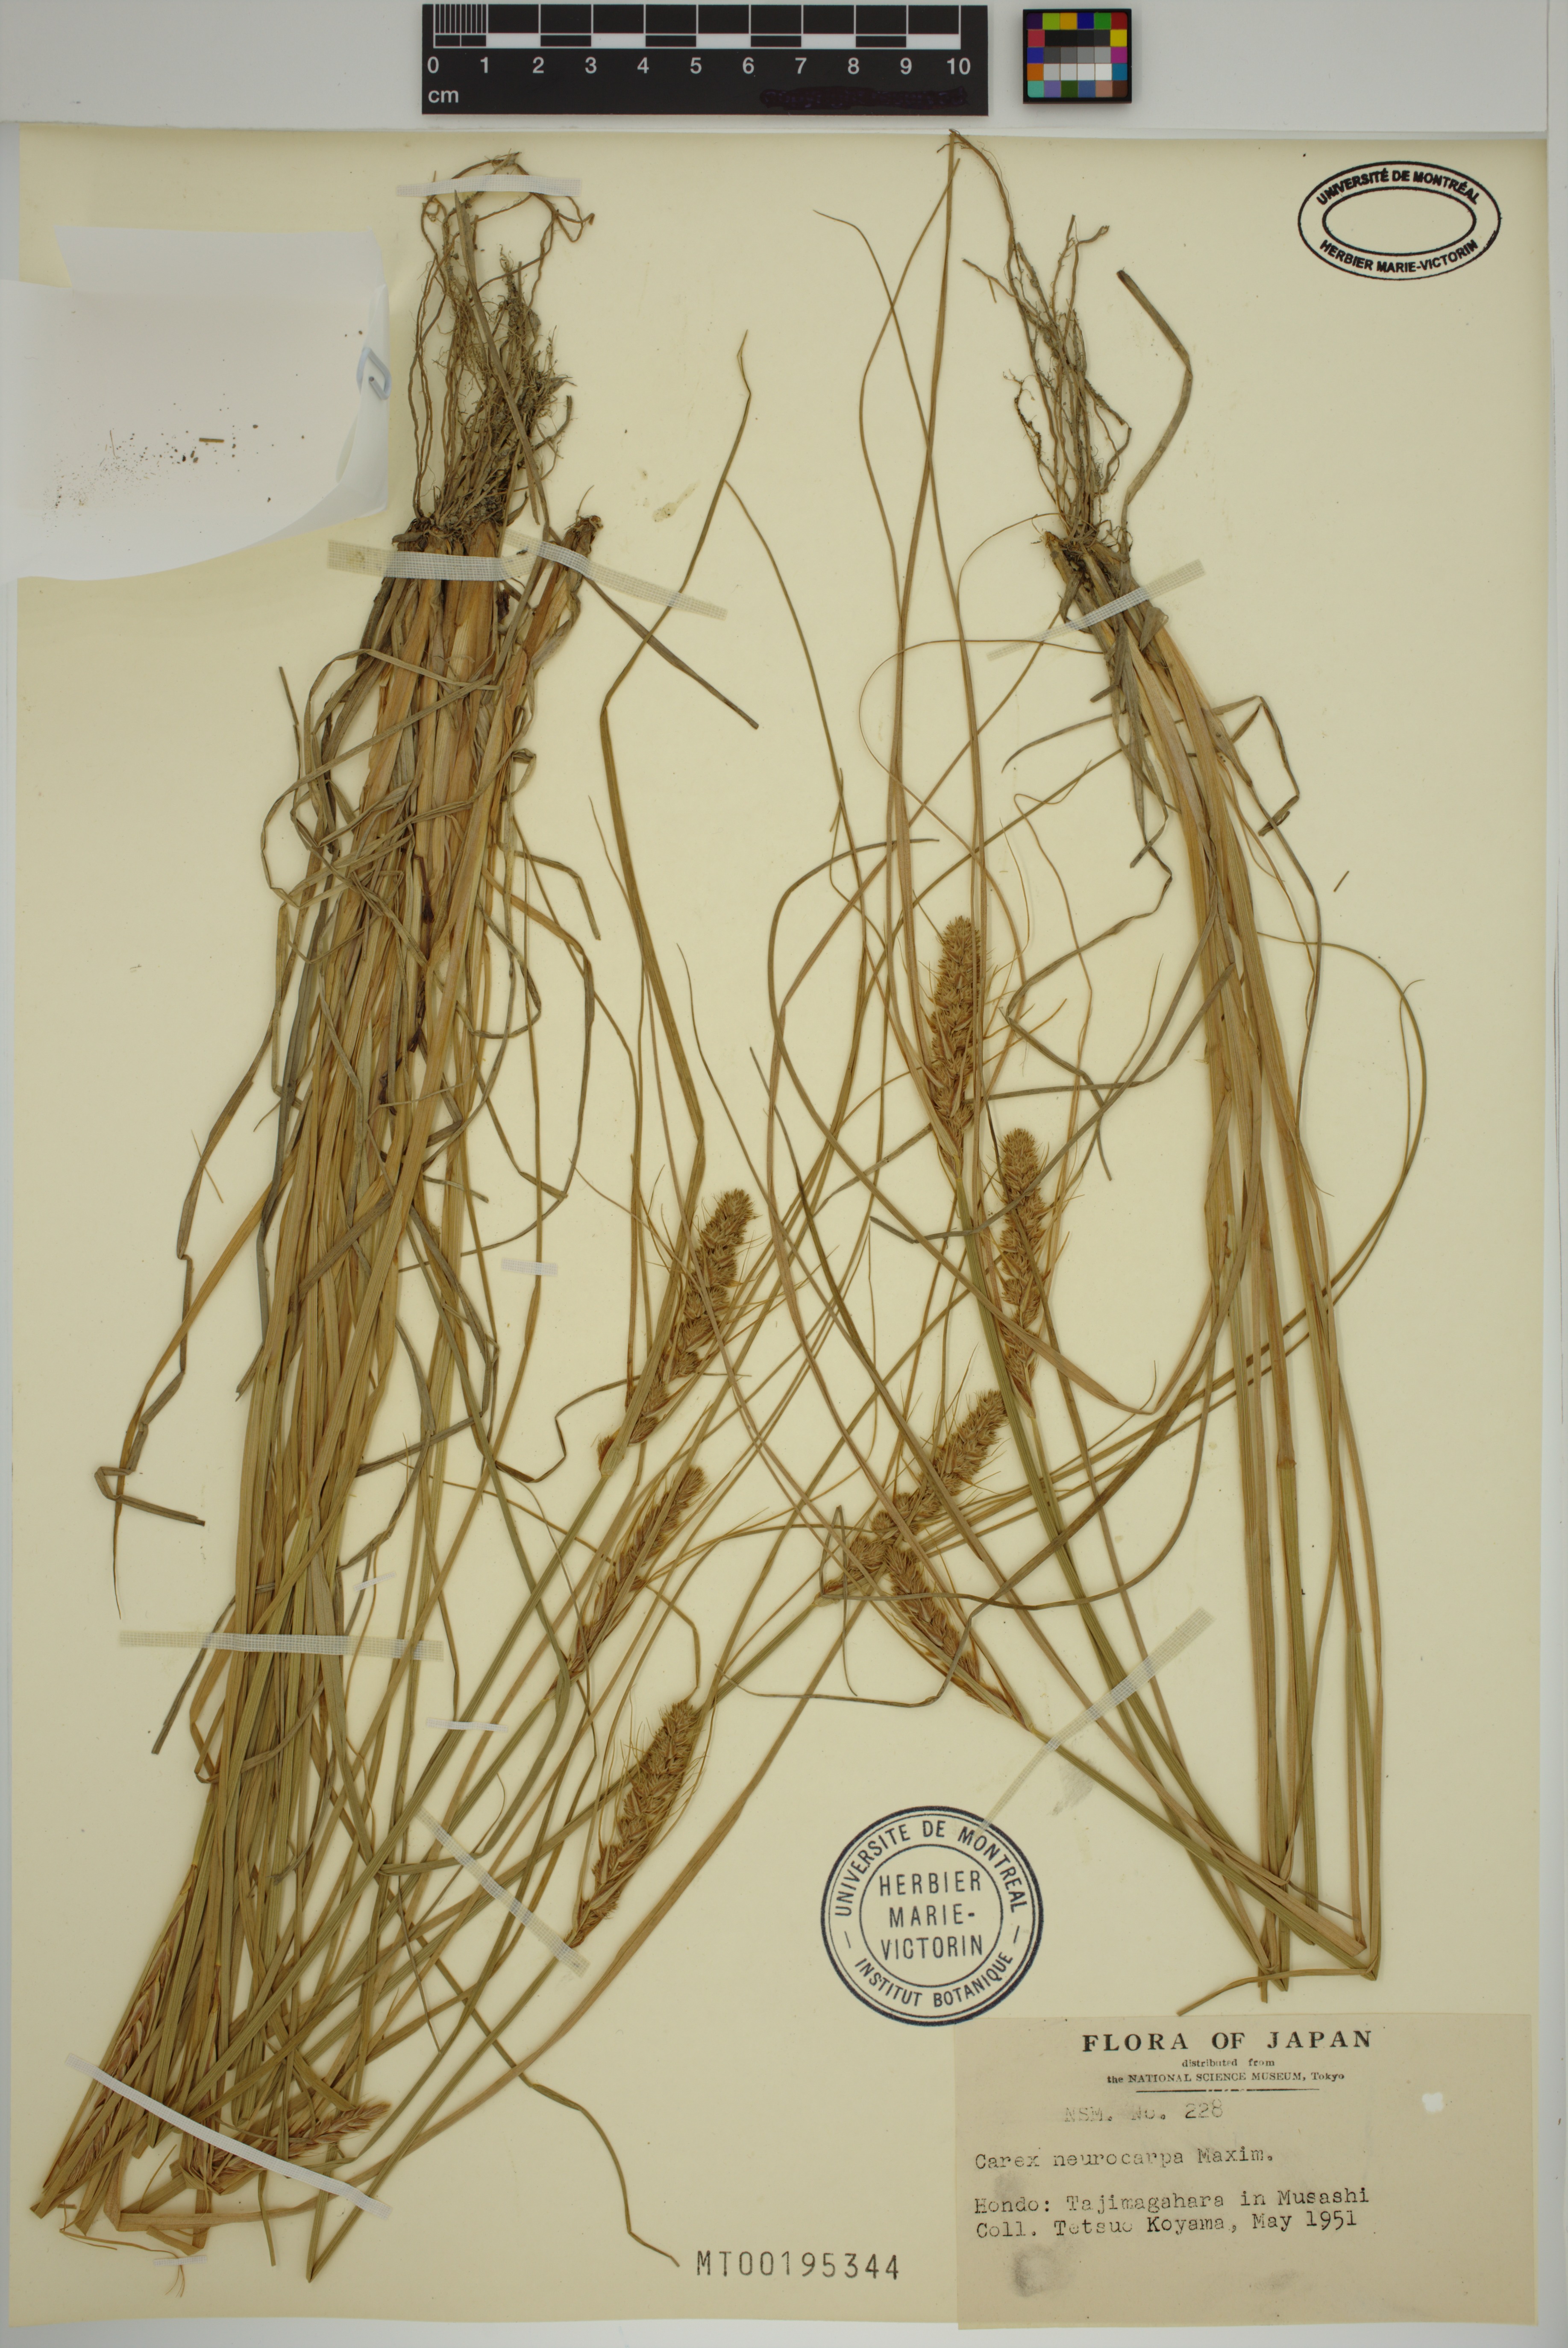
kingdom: Plantae
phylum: Tracheophyta
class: Liliopsida
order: Poales
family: Cyperaceae
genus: Carex
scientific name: Carex neurocarpa
